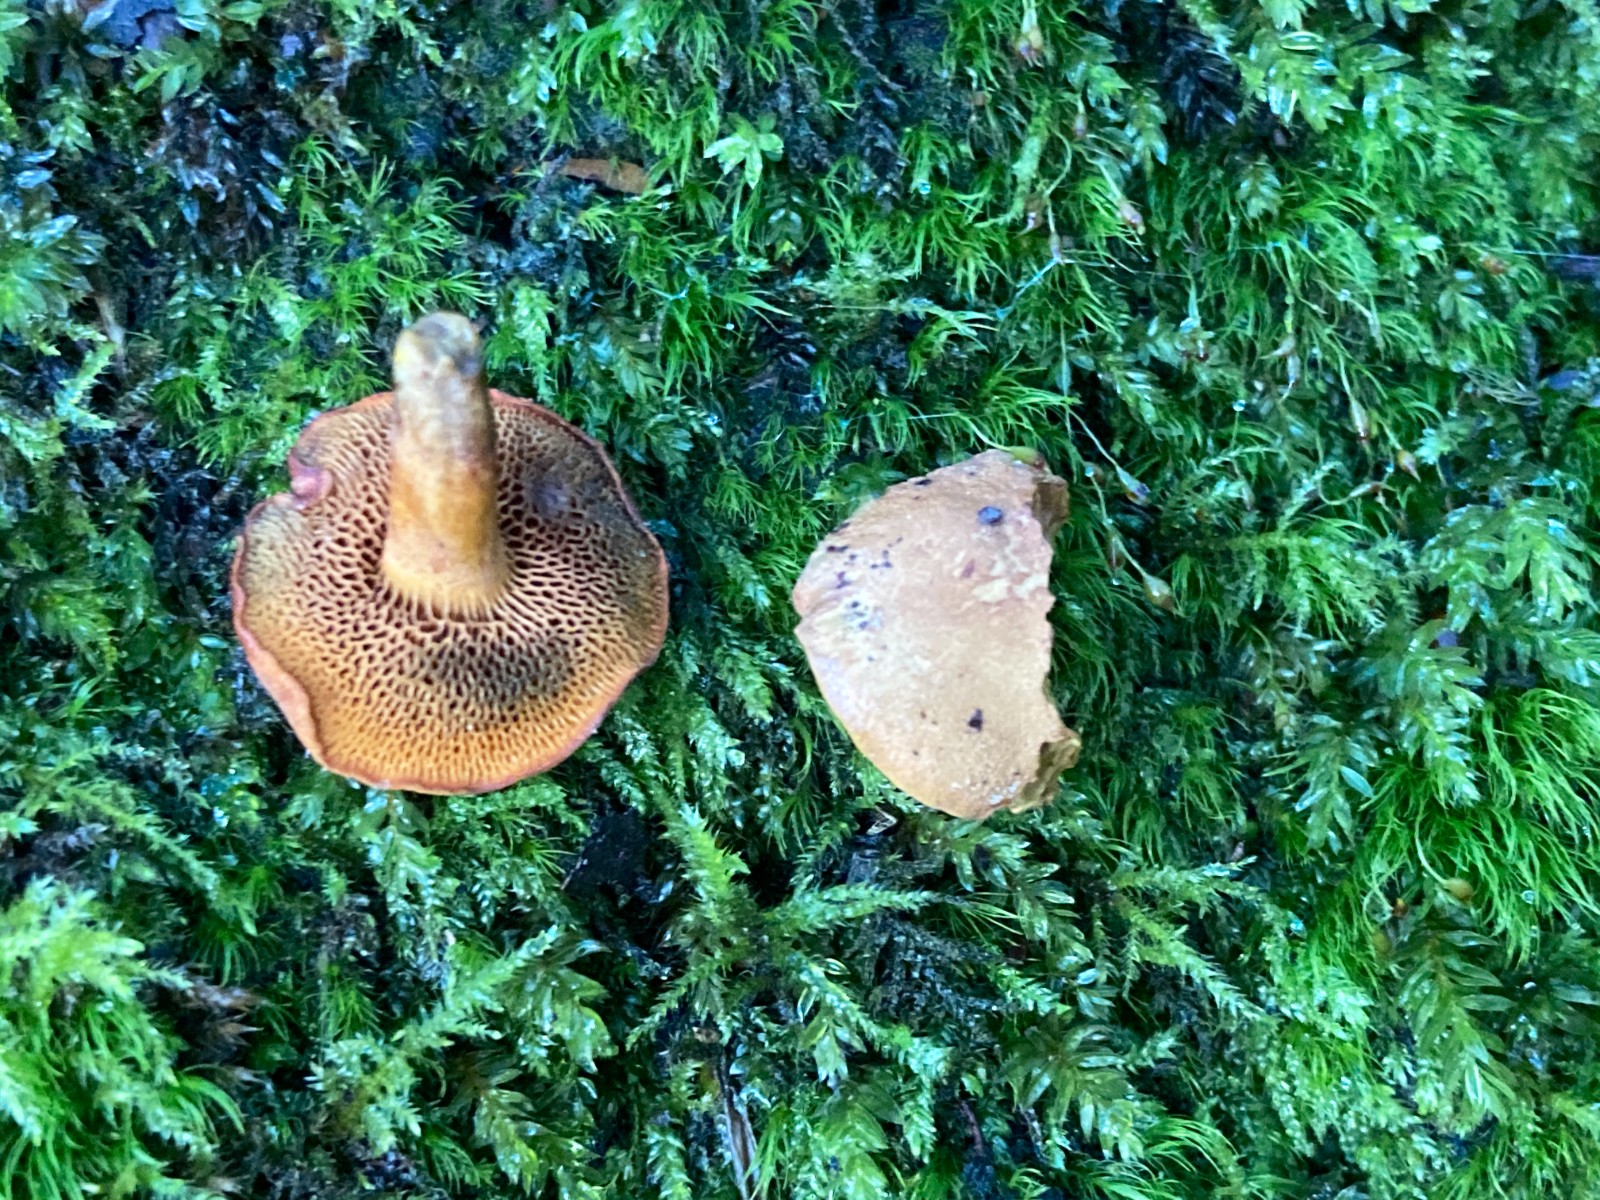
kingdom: Fungi
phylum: Basidiomycota
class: Agaricomycetes
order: Boletales
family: Boletaceae
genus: Chalciporus
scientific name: Chalciporus piperatus
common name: peberrørhat
